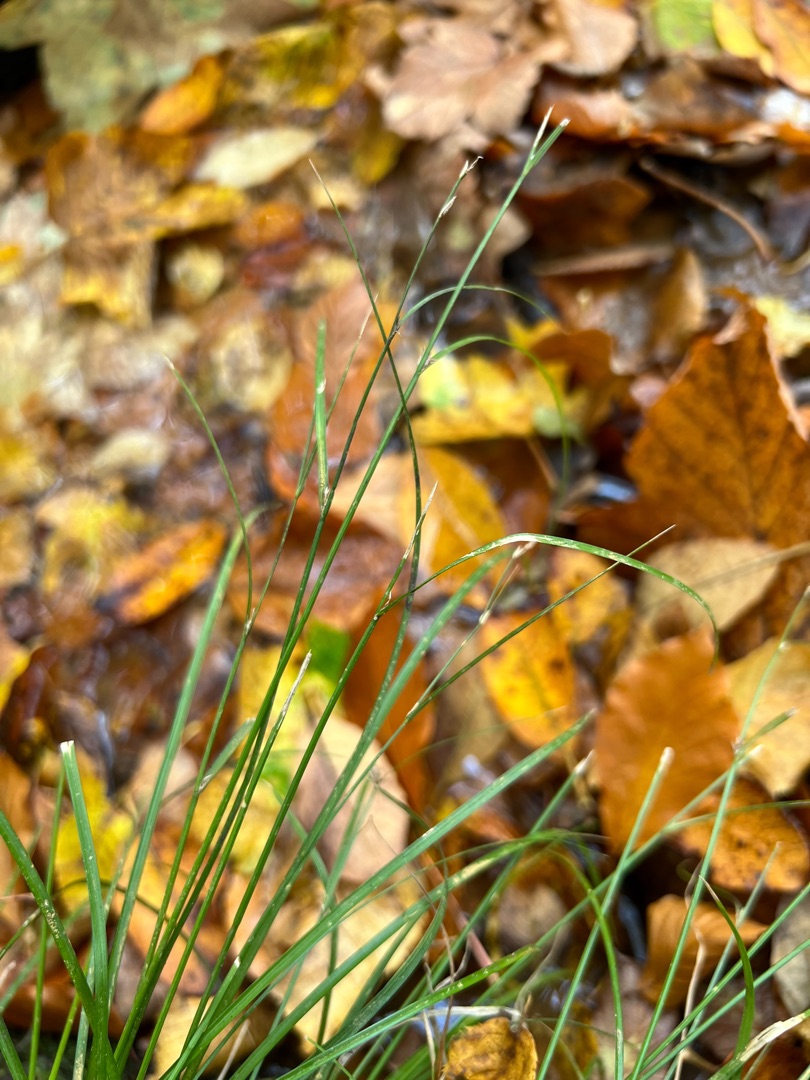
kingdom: Plantae
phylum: Tracheophyta
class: Liliopsida
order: Poales
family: Cyperaceae
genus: Carex
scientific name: Carex remota
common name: Akselblomstret star
